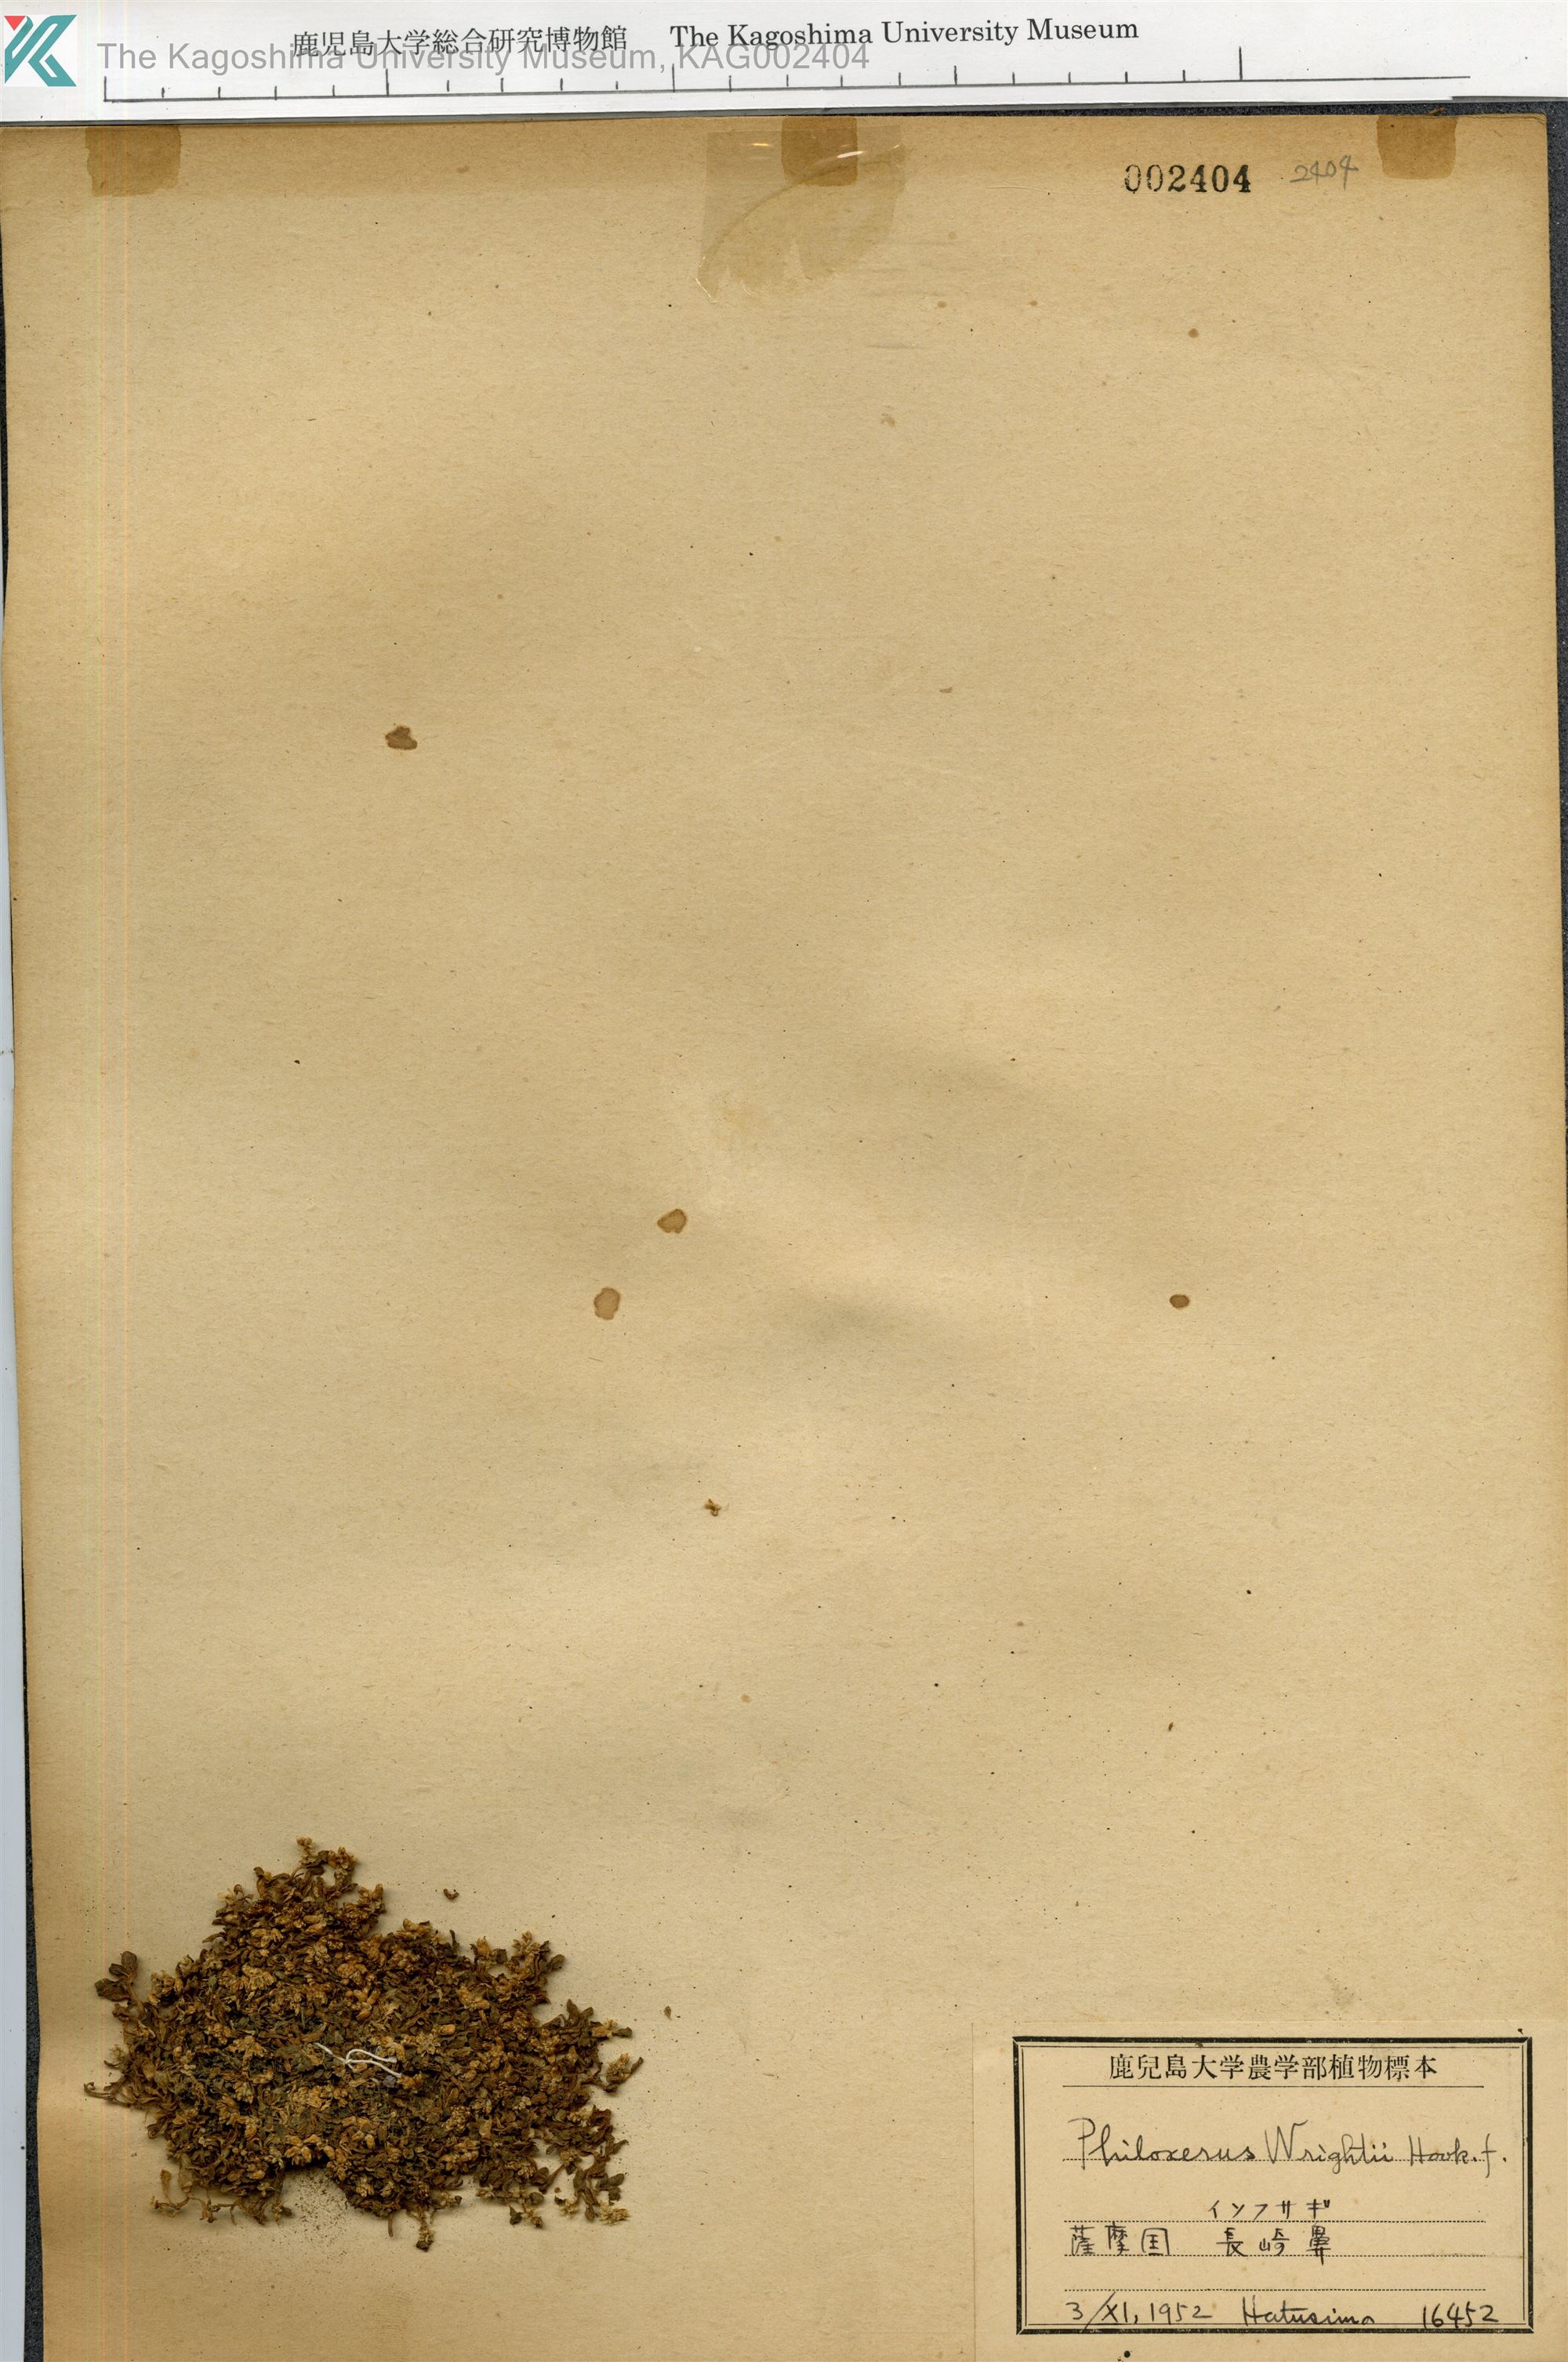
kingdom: Plantae
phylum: Tracheophyta
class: Magnoliopsida
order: Caryophyllales
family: Amaranthaceae
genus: Gomphrena
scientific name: Gomphrena wrightii
